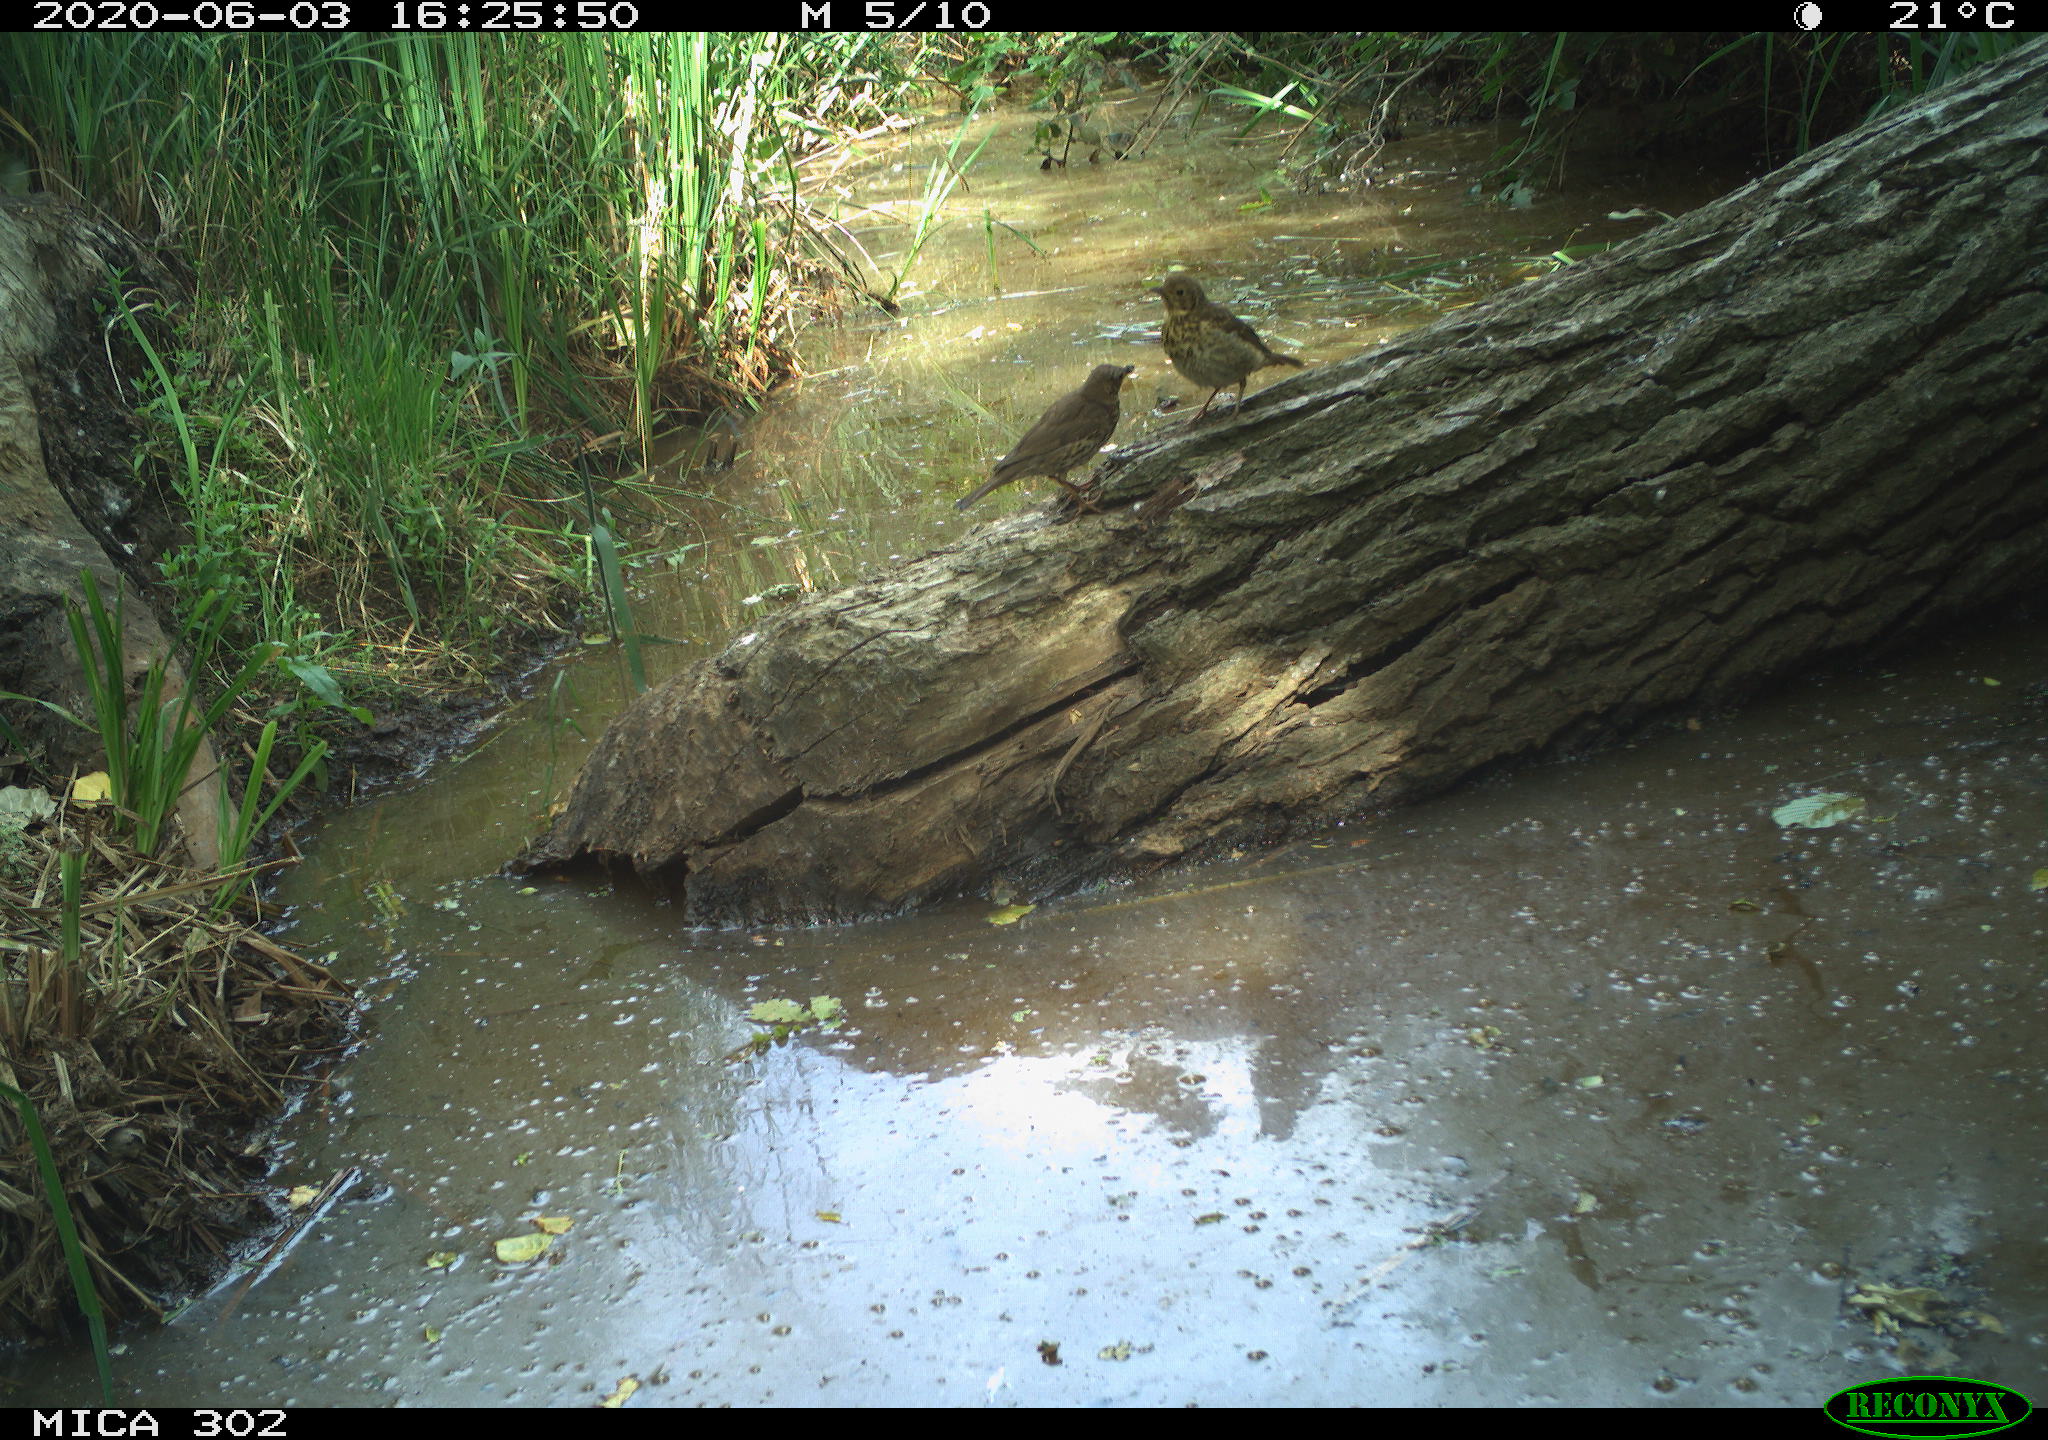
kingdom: Animalia
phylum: Chordata
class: Aves
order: Passeriformes
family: Turdidae
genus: Turdus
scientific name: Turdus philomelos
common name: Song thrush
